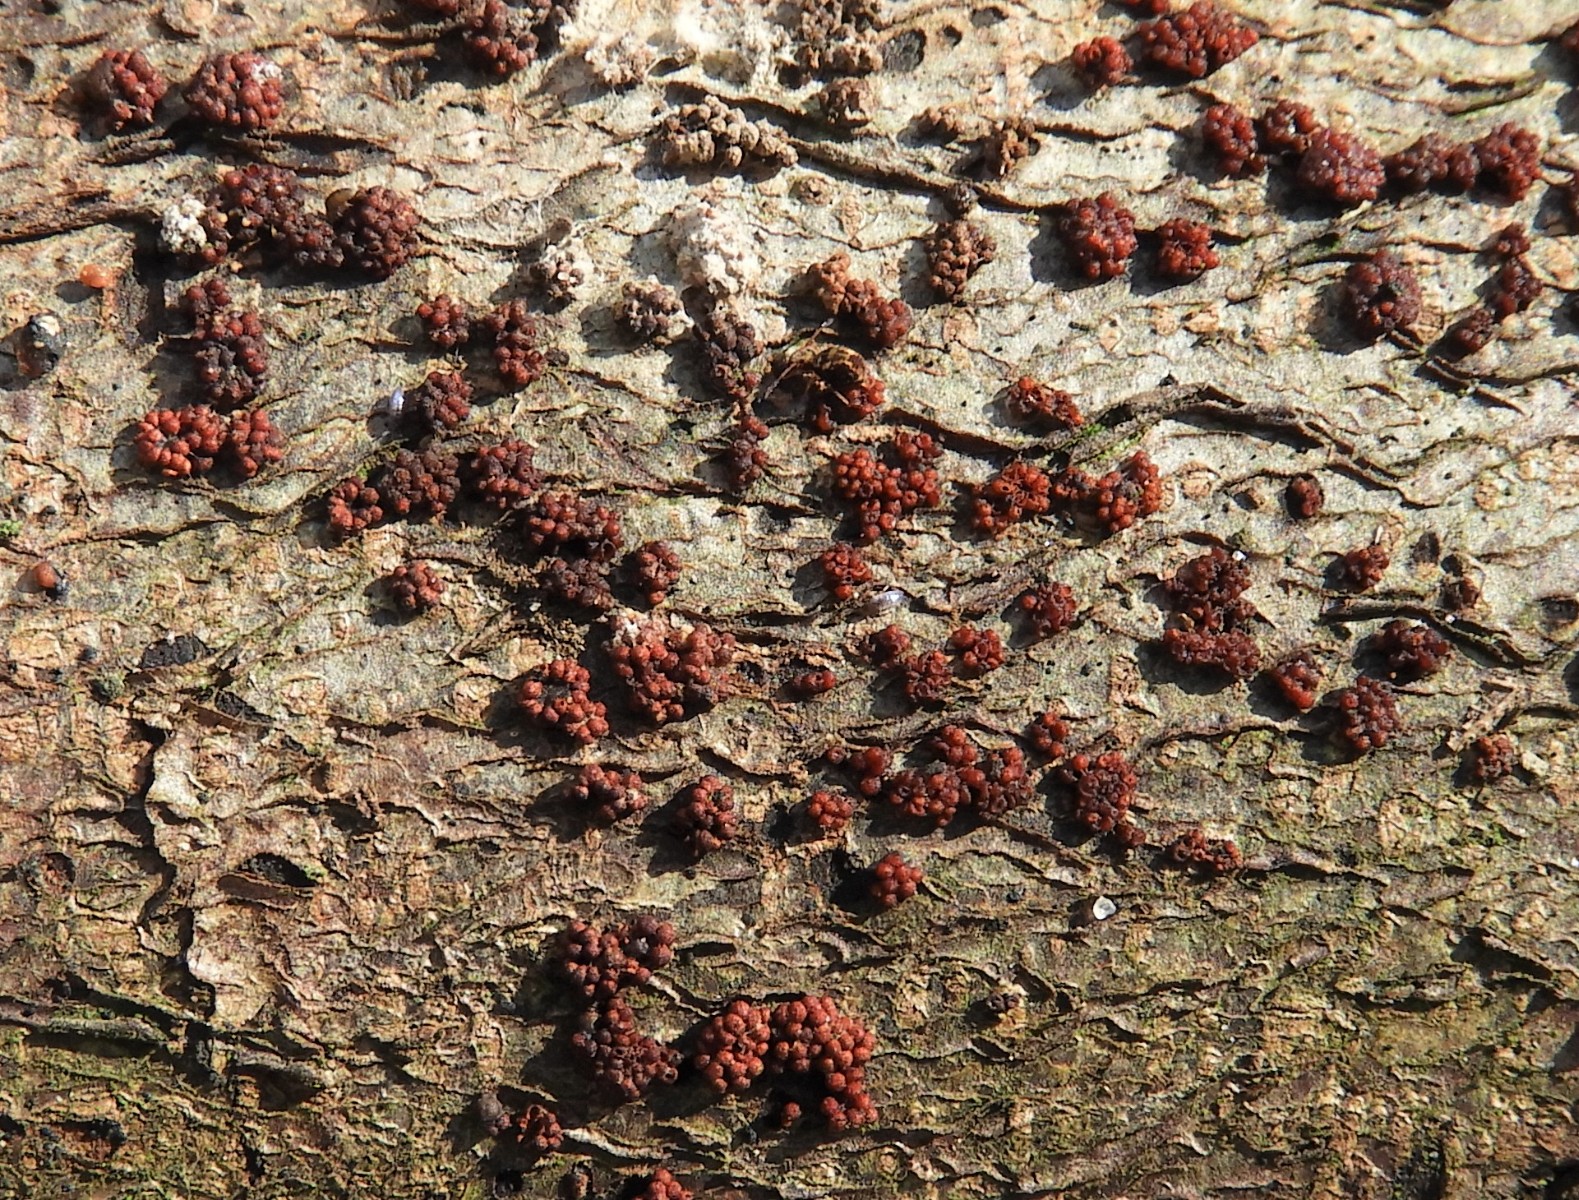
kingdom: Fungi
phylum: Ascomycota
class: Sordariomycetes
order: Hypocreales
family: Nectriaceae
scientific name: Nectriaceae
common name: cinnobersvampfamilien
